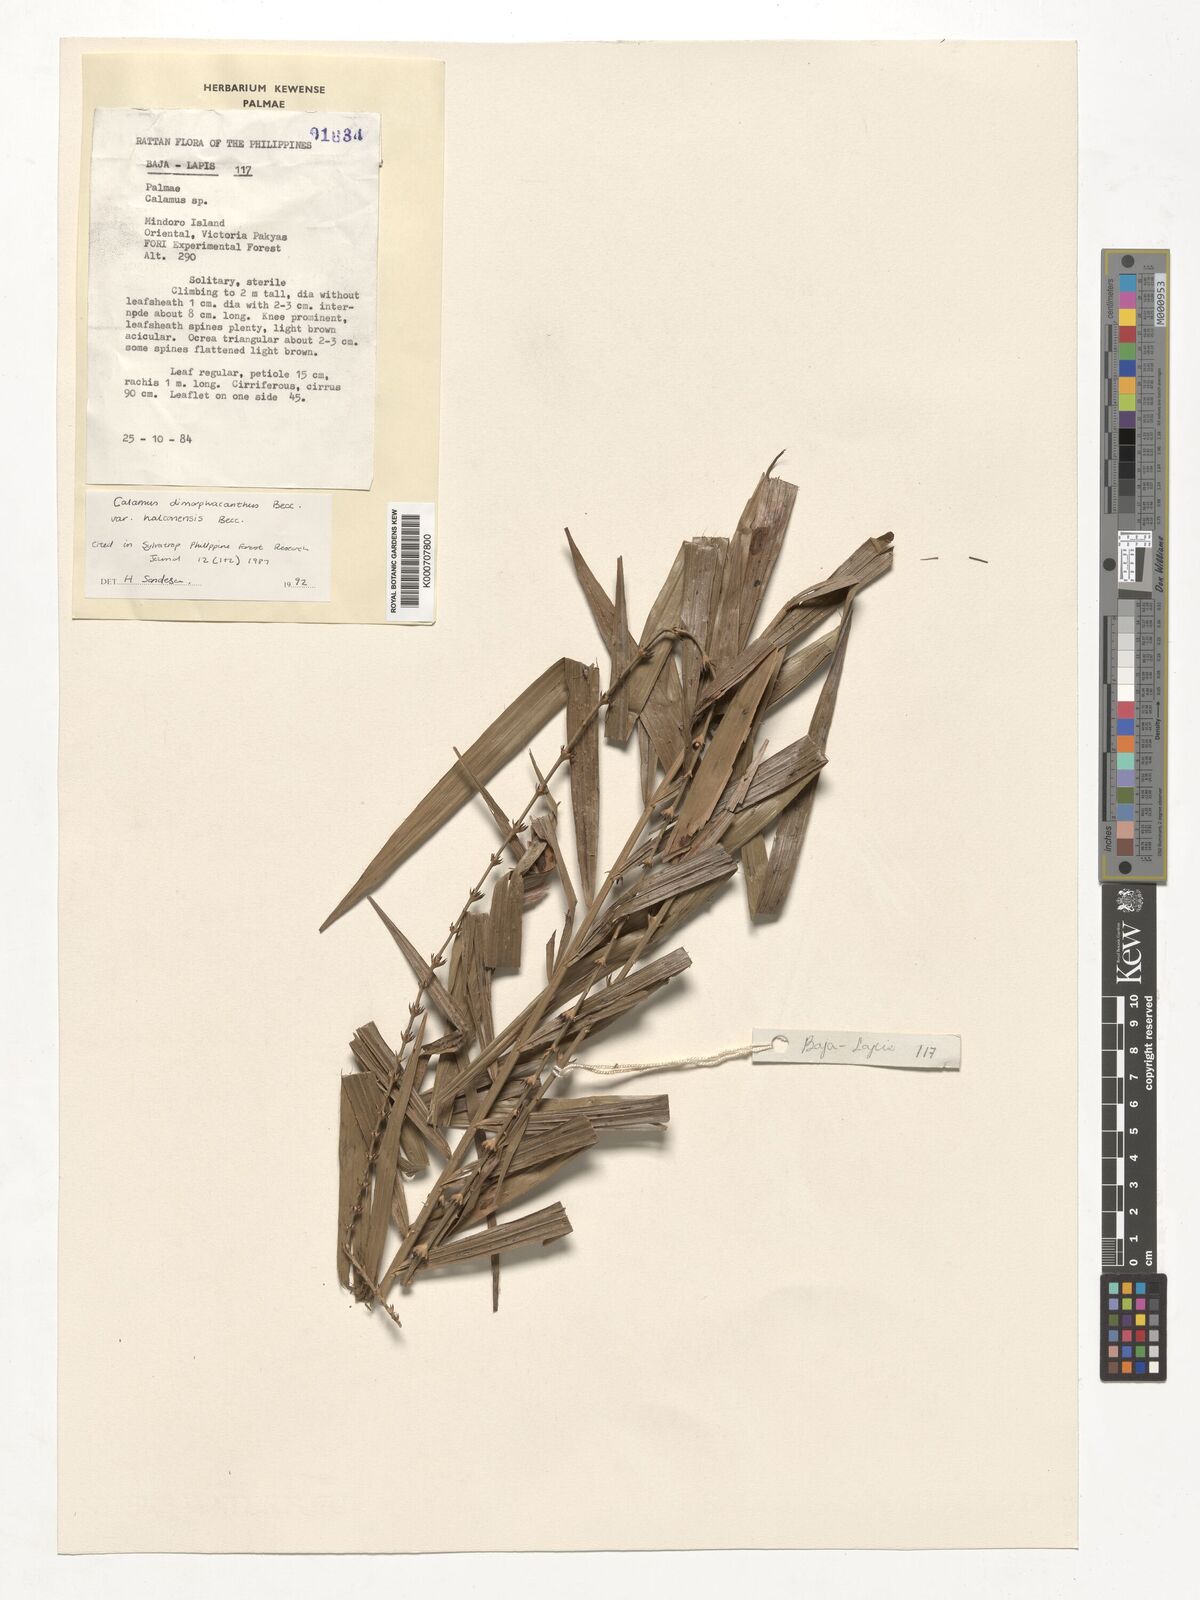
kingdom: Plantae
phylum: Tracheophyta
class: Liliopsida
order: Arecales
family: Arecaceae
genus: Calamus
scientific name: Calamus siphonospathus
